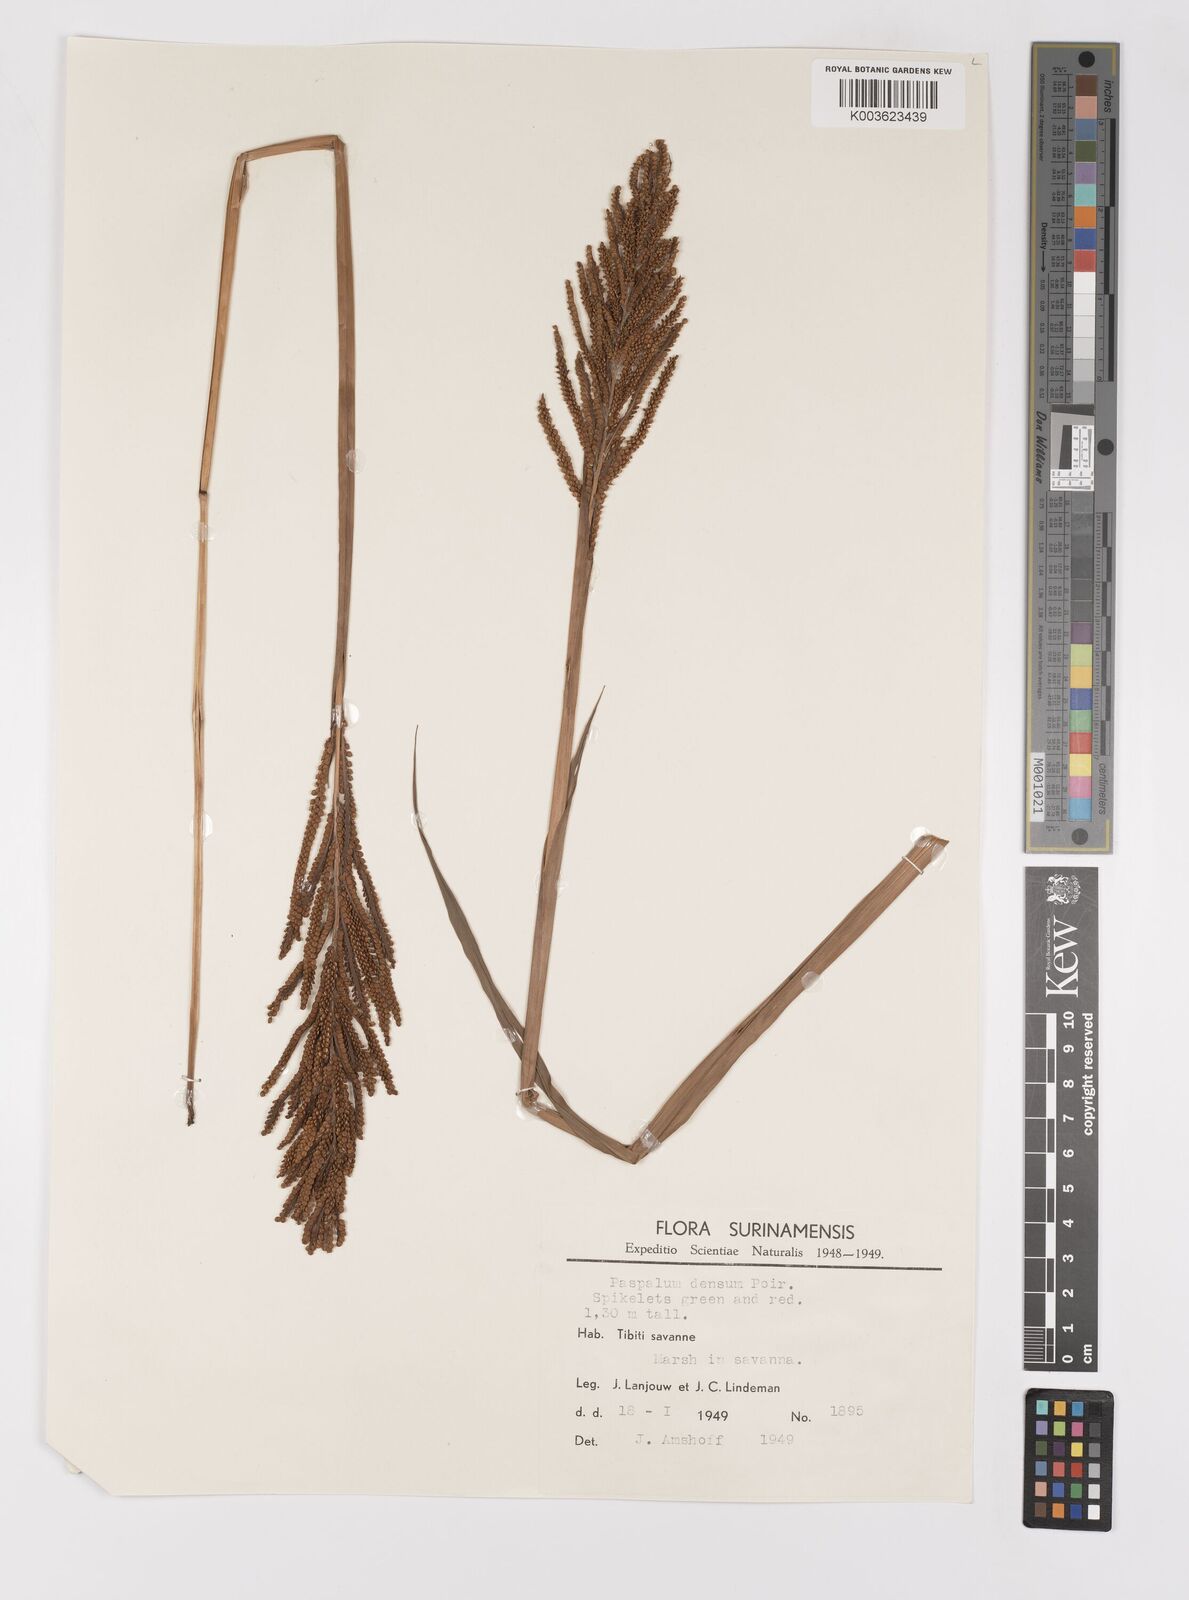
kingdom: Plantae
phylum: Tracheophyta
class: Liliopsida
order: Poales
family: Poaceae
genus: Paspalum
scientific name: Paspalum densum
